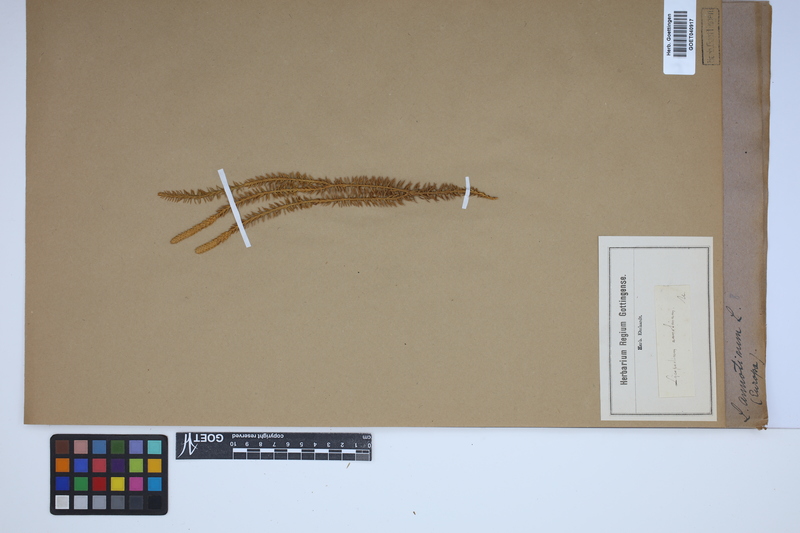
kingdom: Plantae
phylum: Tracheophyta
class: Lycopodiopsida
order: Lycopodiales
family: Lycopodiaceae
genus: Spinulum
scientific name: Spinulum annotinum
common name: Interrupted club-moss
